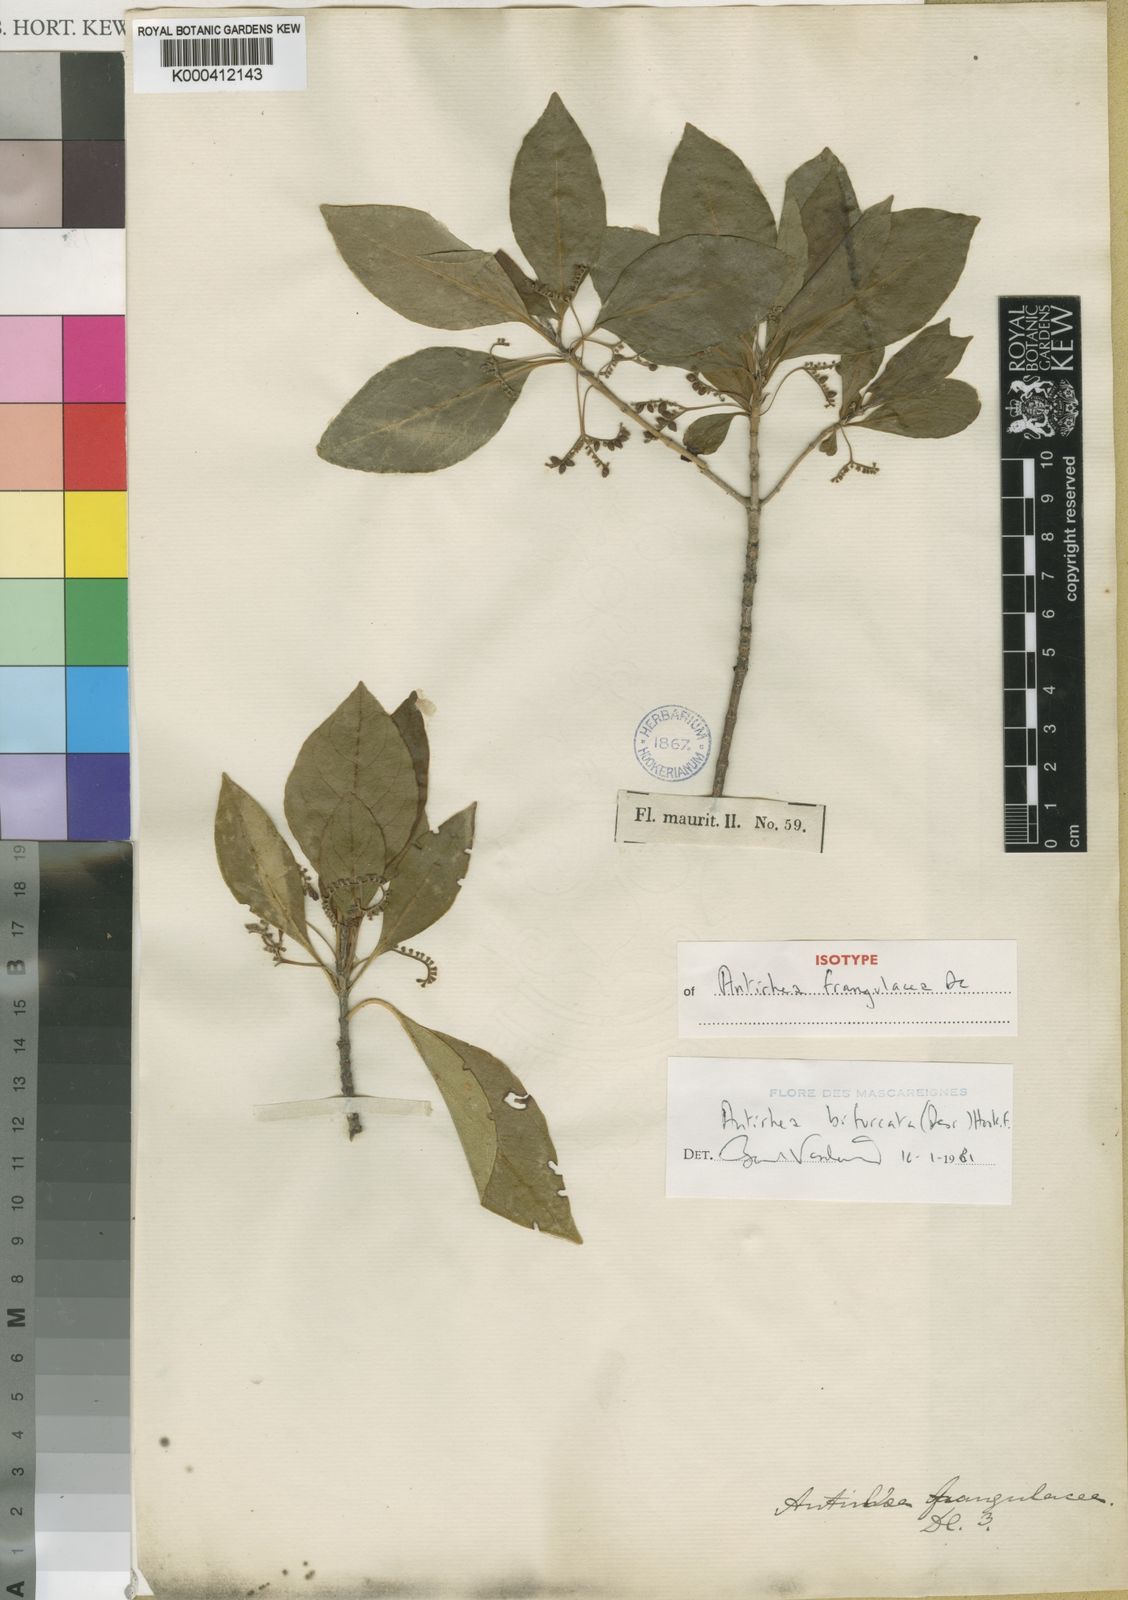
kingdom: Plantae
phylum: Tracheophyta
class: Magnoliopsida
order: Gentianales
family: Rubiaceae
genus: Antirhea
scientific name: Antirhea bifurcata
